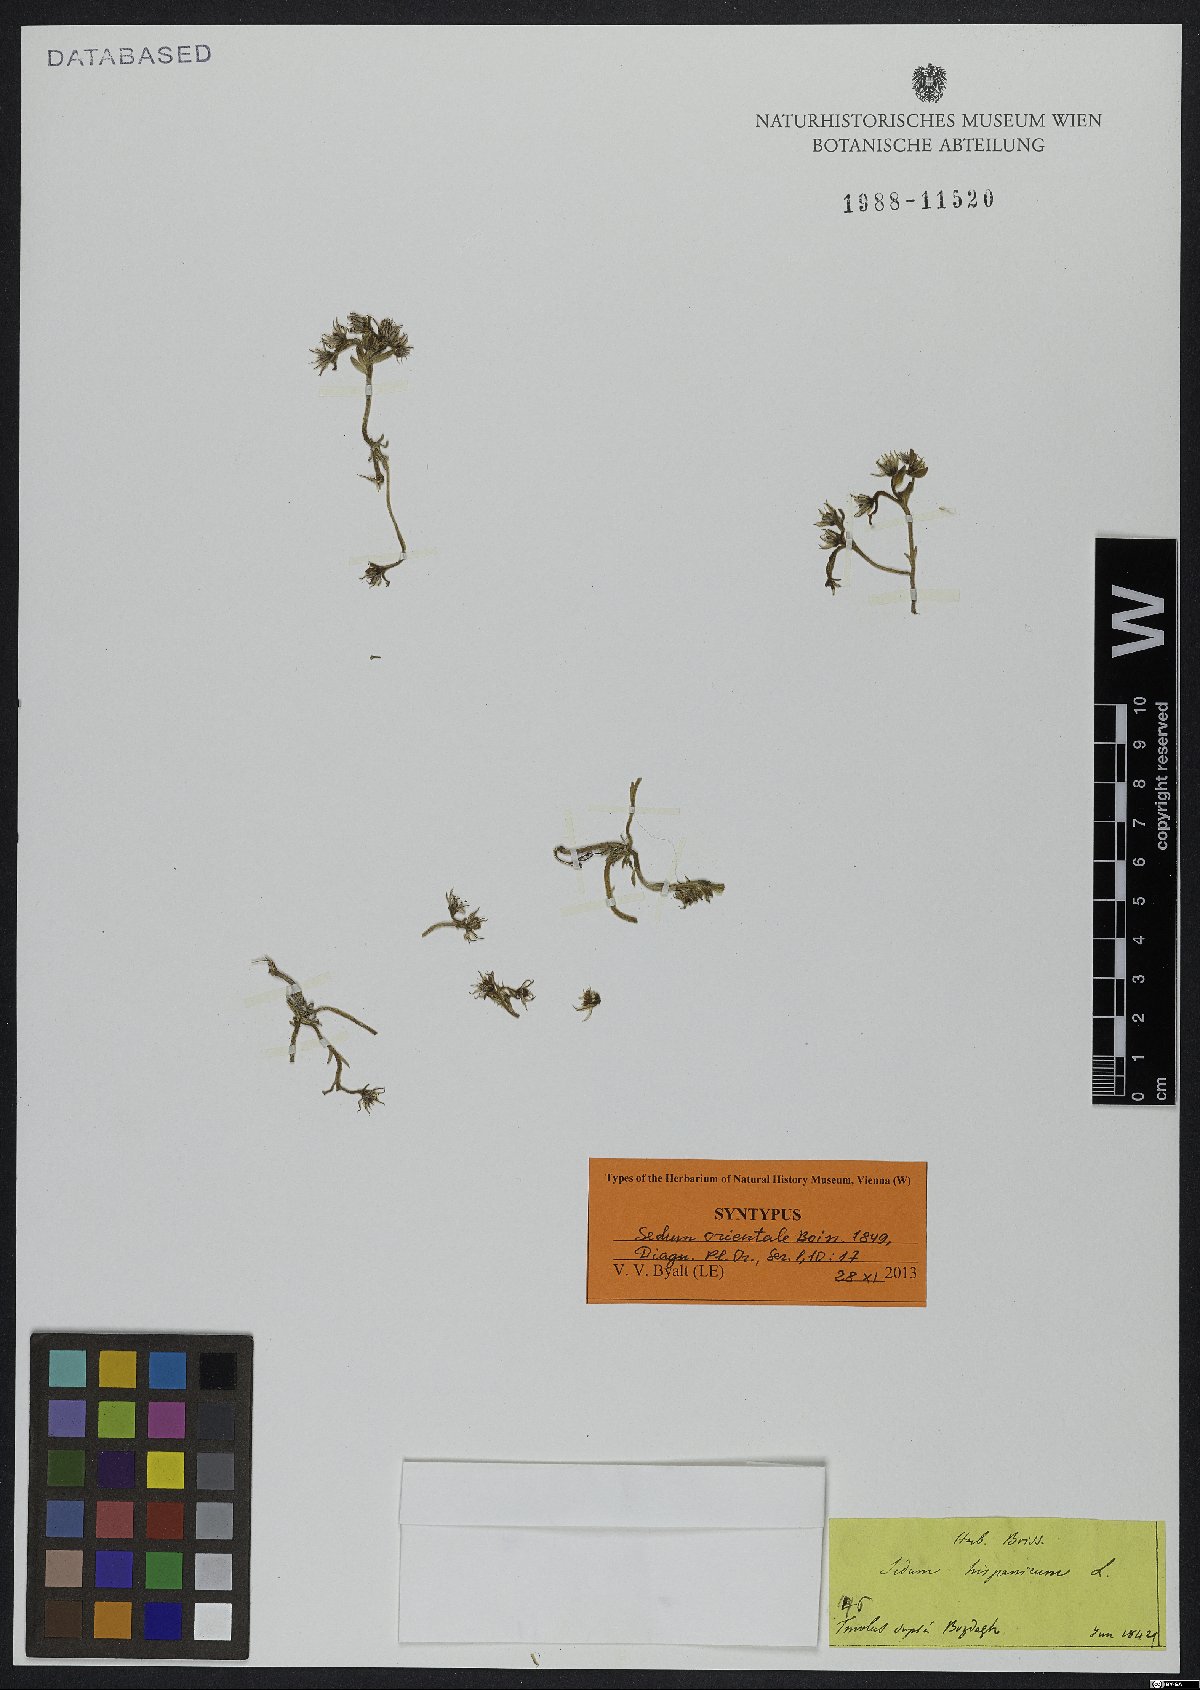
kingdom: Plantae
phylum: Tracheophyta
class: Magnoliopsida
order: Saxifragales
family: Crassulaceae
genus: Sedum
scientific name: Sedum hispanicum
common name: Spanish stonecrop
